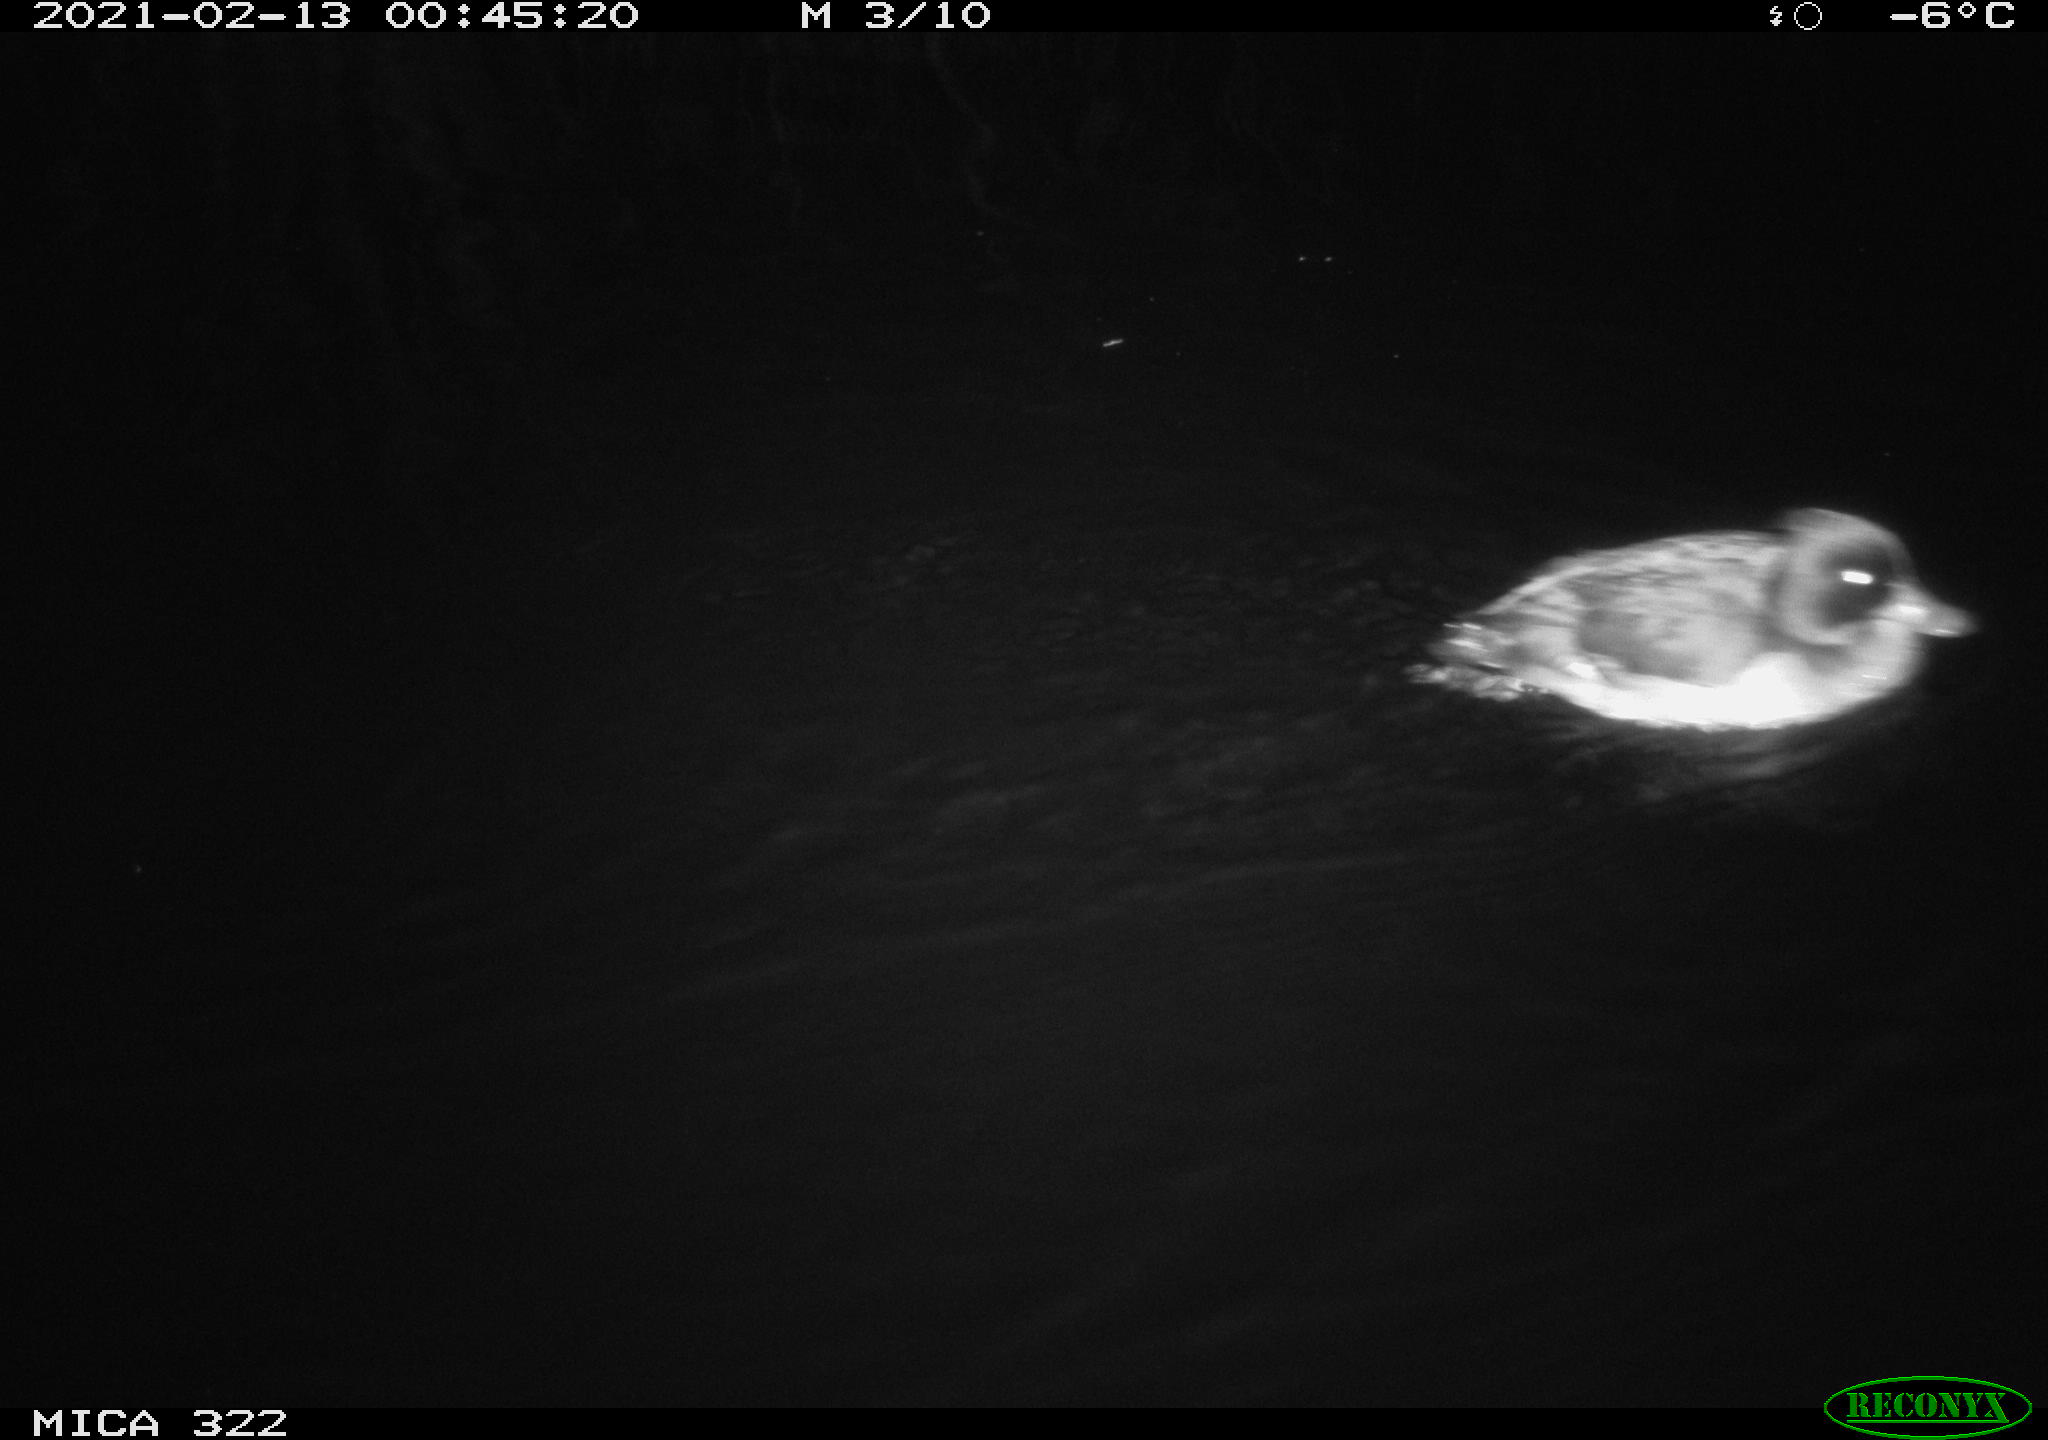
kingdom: Animalia
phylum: Chordata
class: Aves
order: Anseriformes
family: Anatidae
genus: Anas
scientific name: Anas platyrhynchos
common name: Mallard
